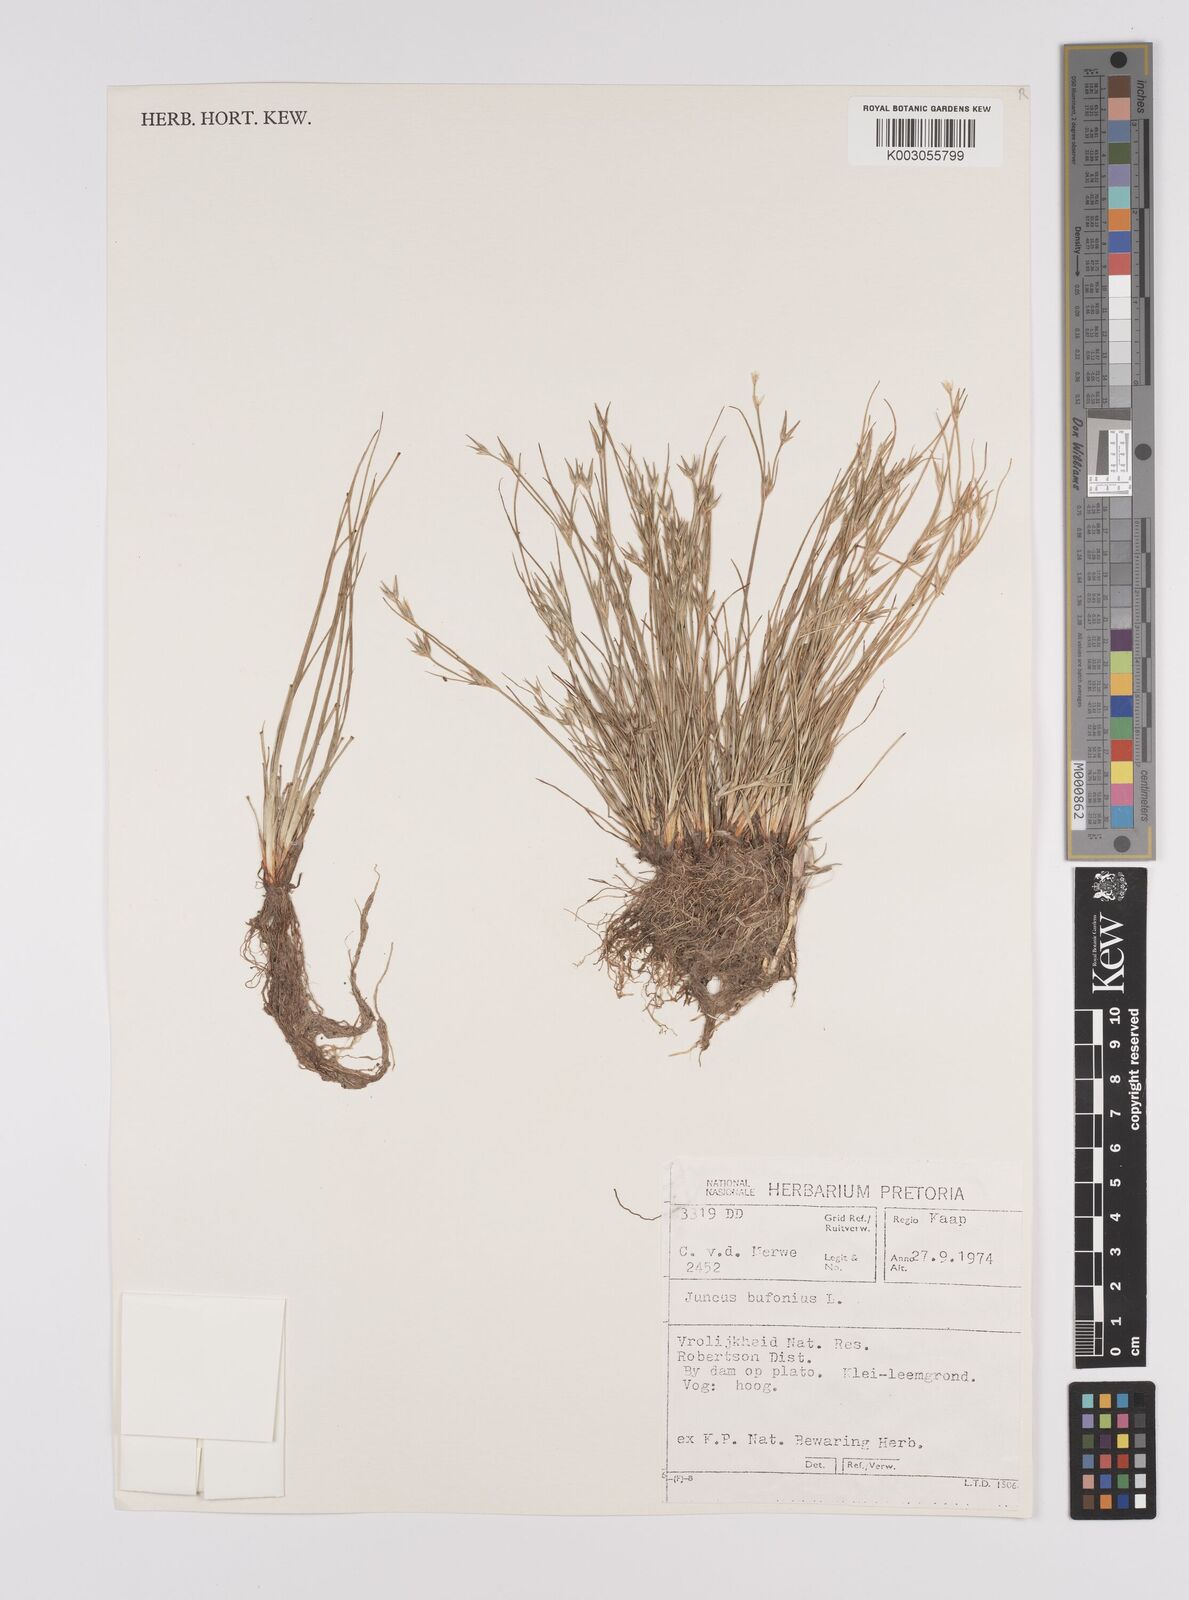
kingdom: Plantae
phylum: Tracheophyta
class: Liliopsida
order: Poales
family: Juncaceae
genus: Juncus
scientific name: Juncus bufonius
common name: Toad rush
